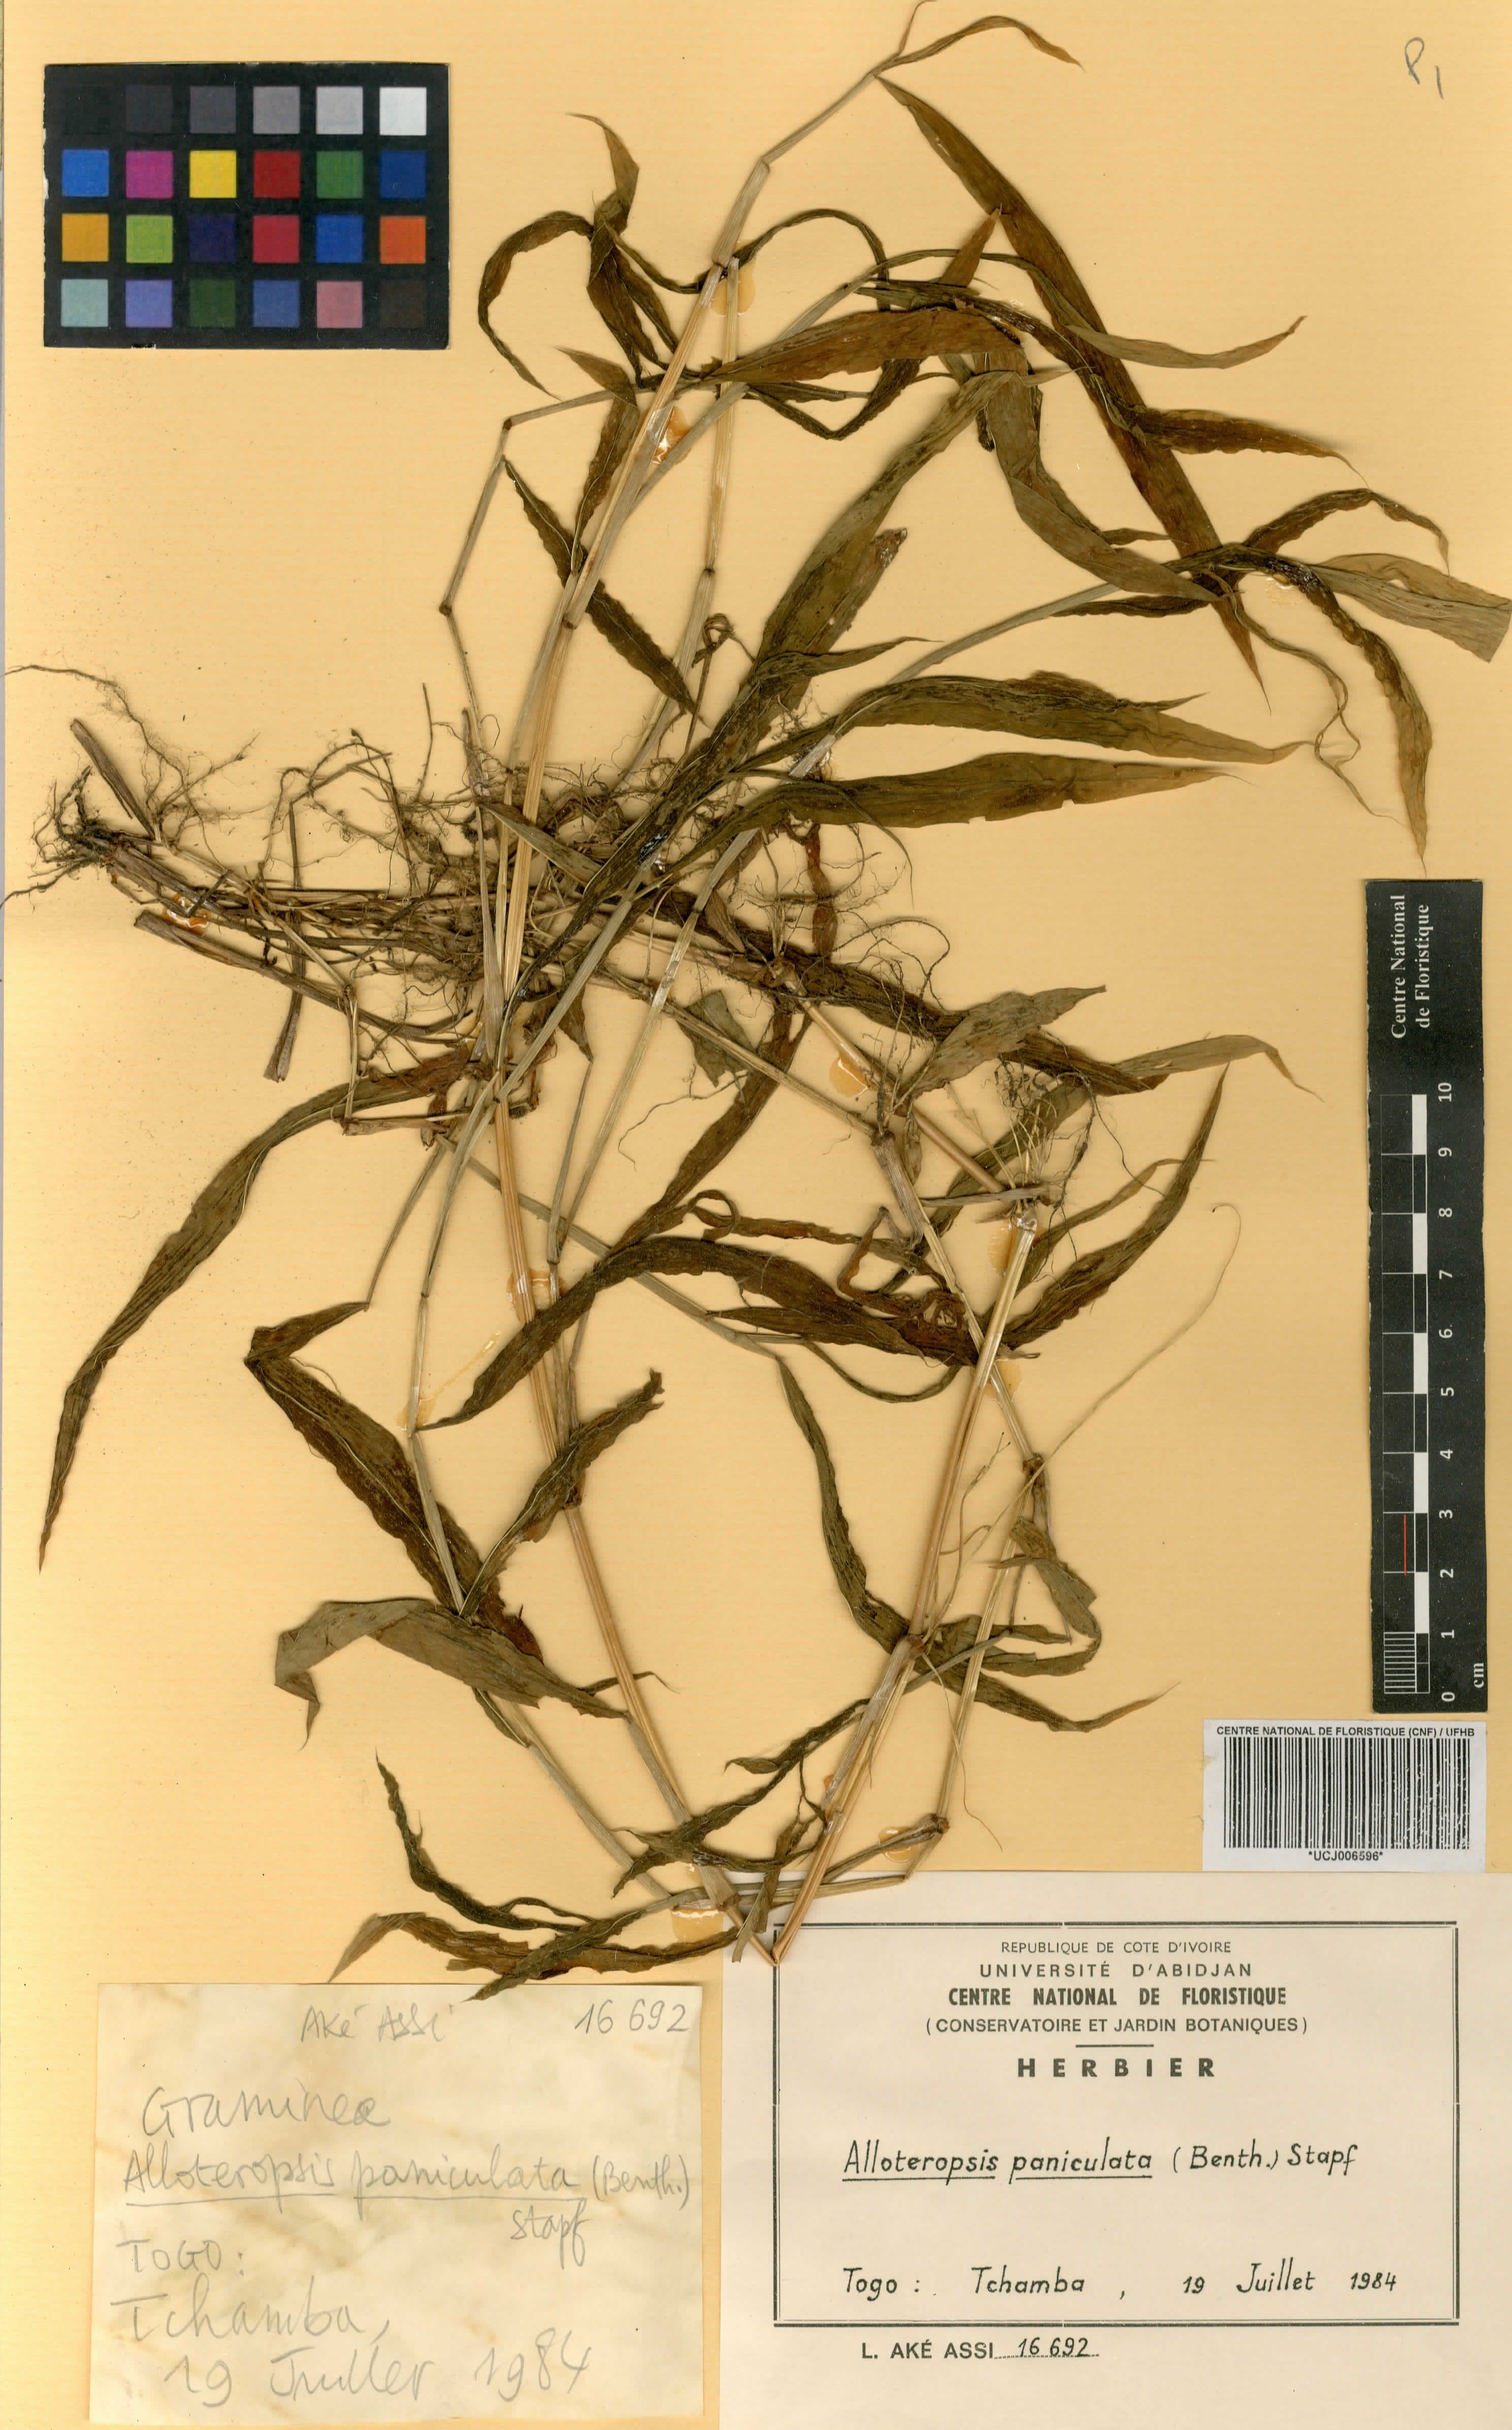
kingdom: Plantae
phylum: Tracheophyta
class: Liliopsida
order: Poales
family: Poaceae
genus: Alloteropsis
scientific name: Alloteropsis paniculata
